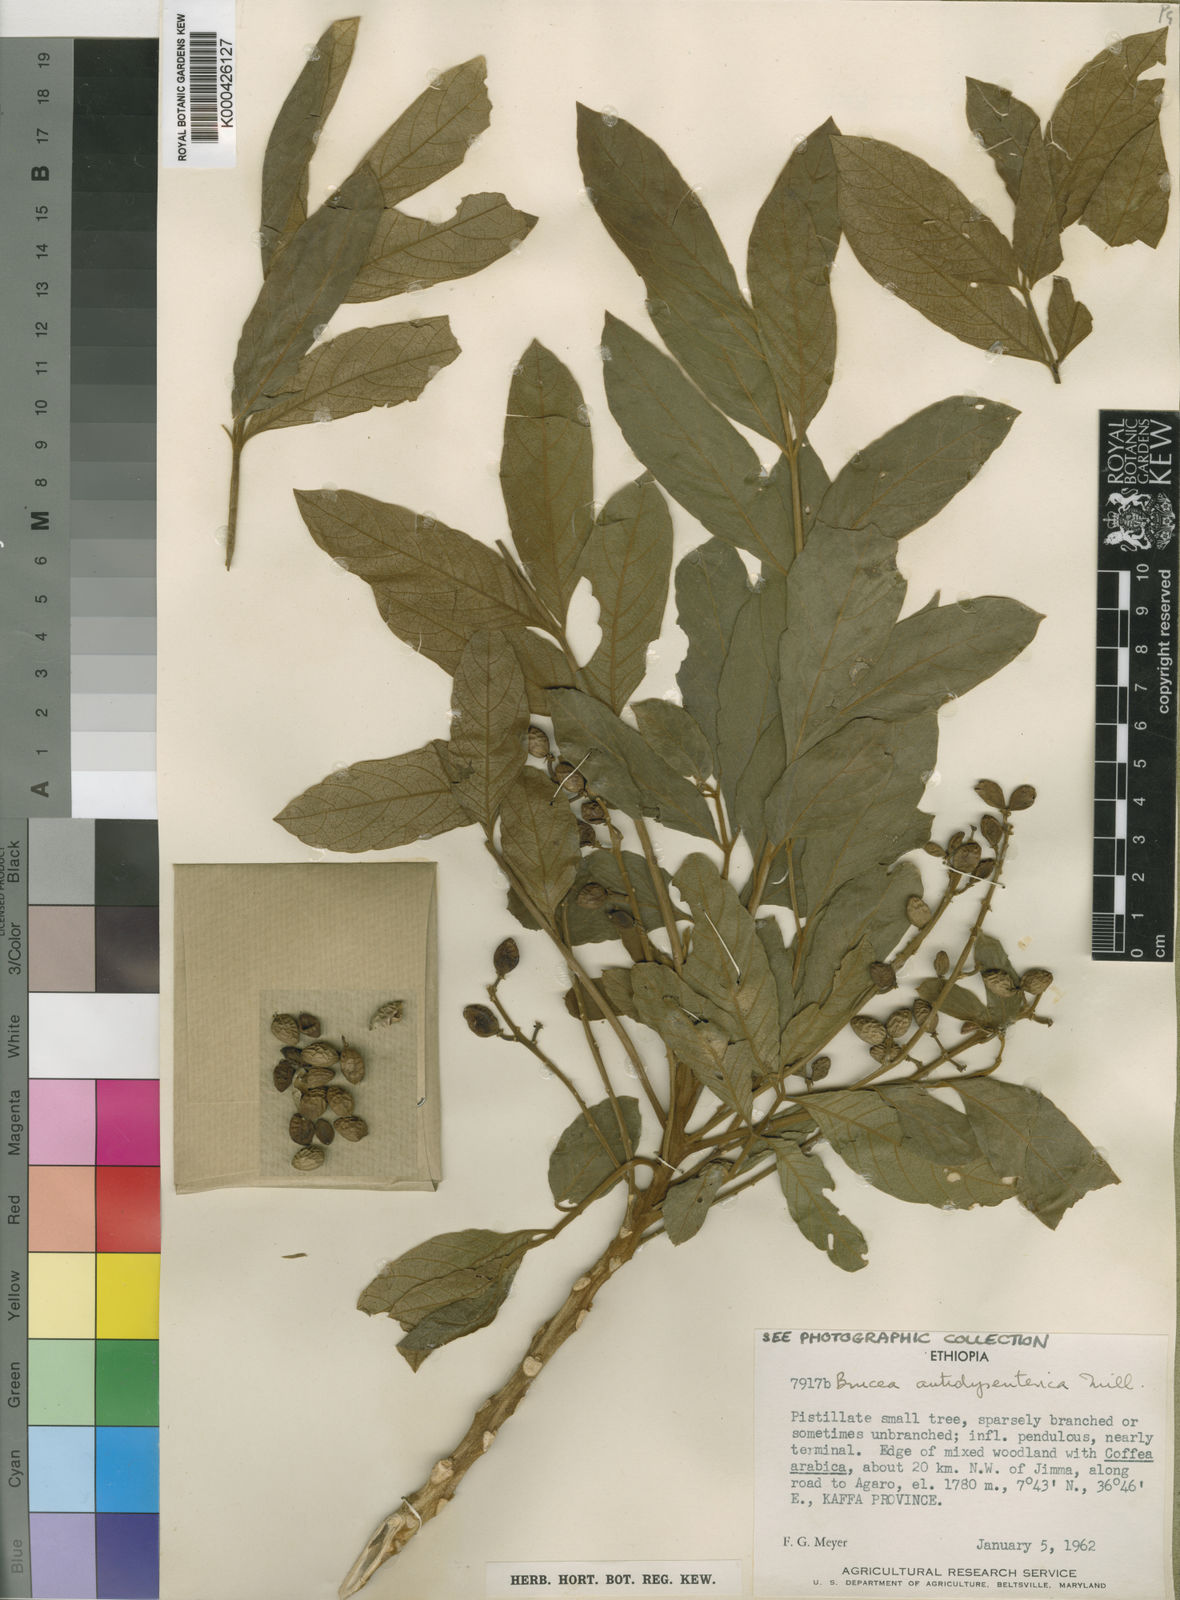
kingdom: Plantae
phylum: Tracheophyta
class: Magnoliopsida
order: Sapindales
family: Simaroubaceae
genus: Brucea
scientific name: Brucea antidysenterica
